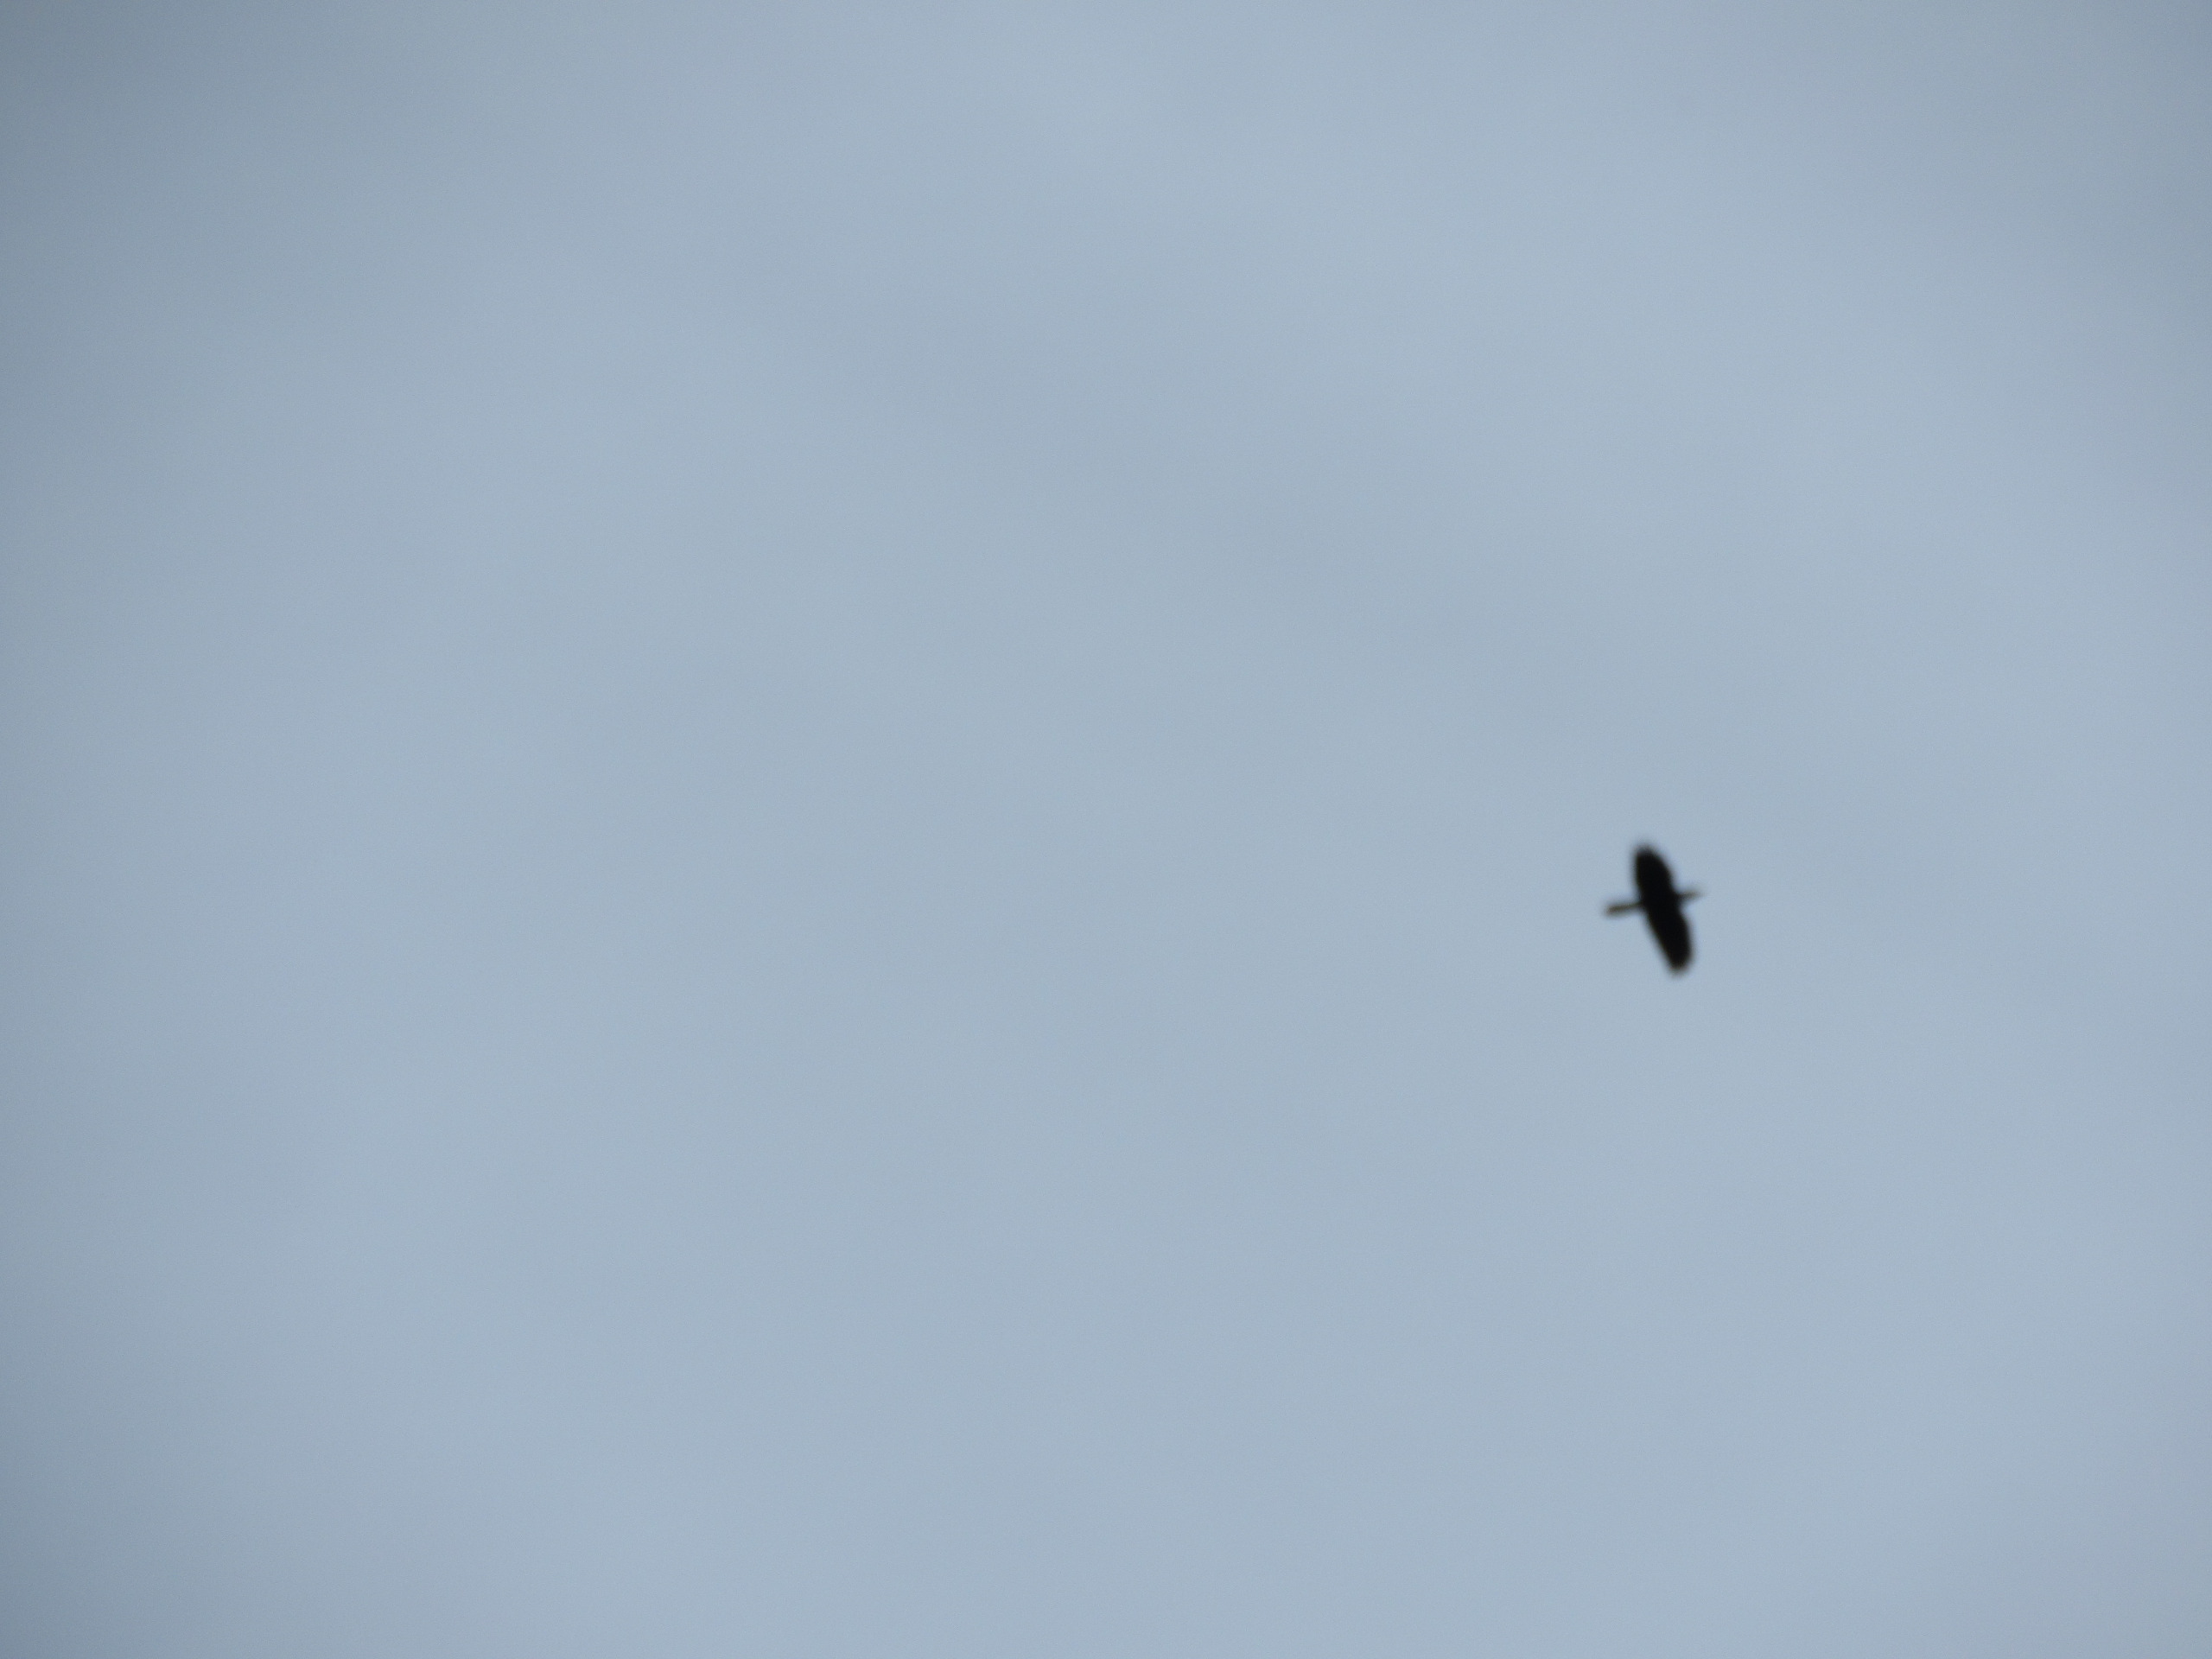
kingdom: Animalia
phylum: Chordata
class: Aves
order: Passeriformes
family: Corvidae
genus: Corvus
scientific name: Corvus corax
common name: Ravn
